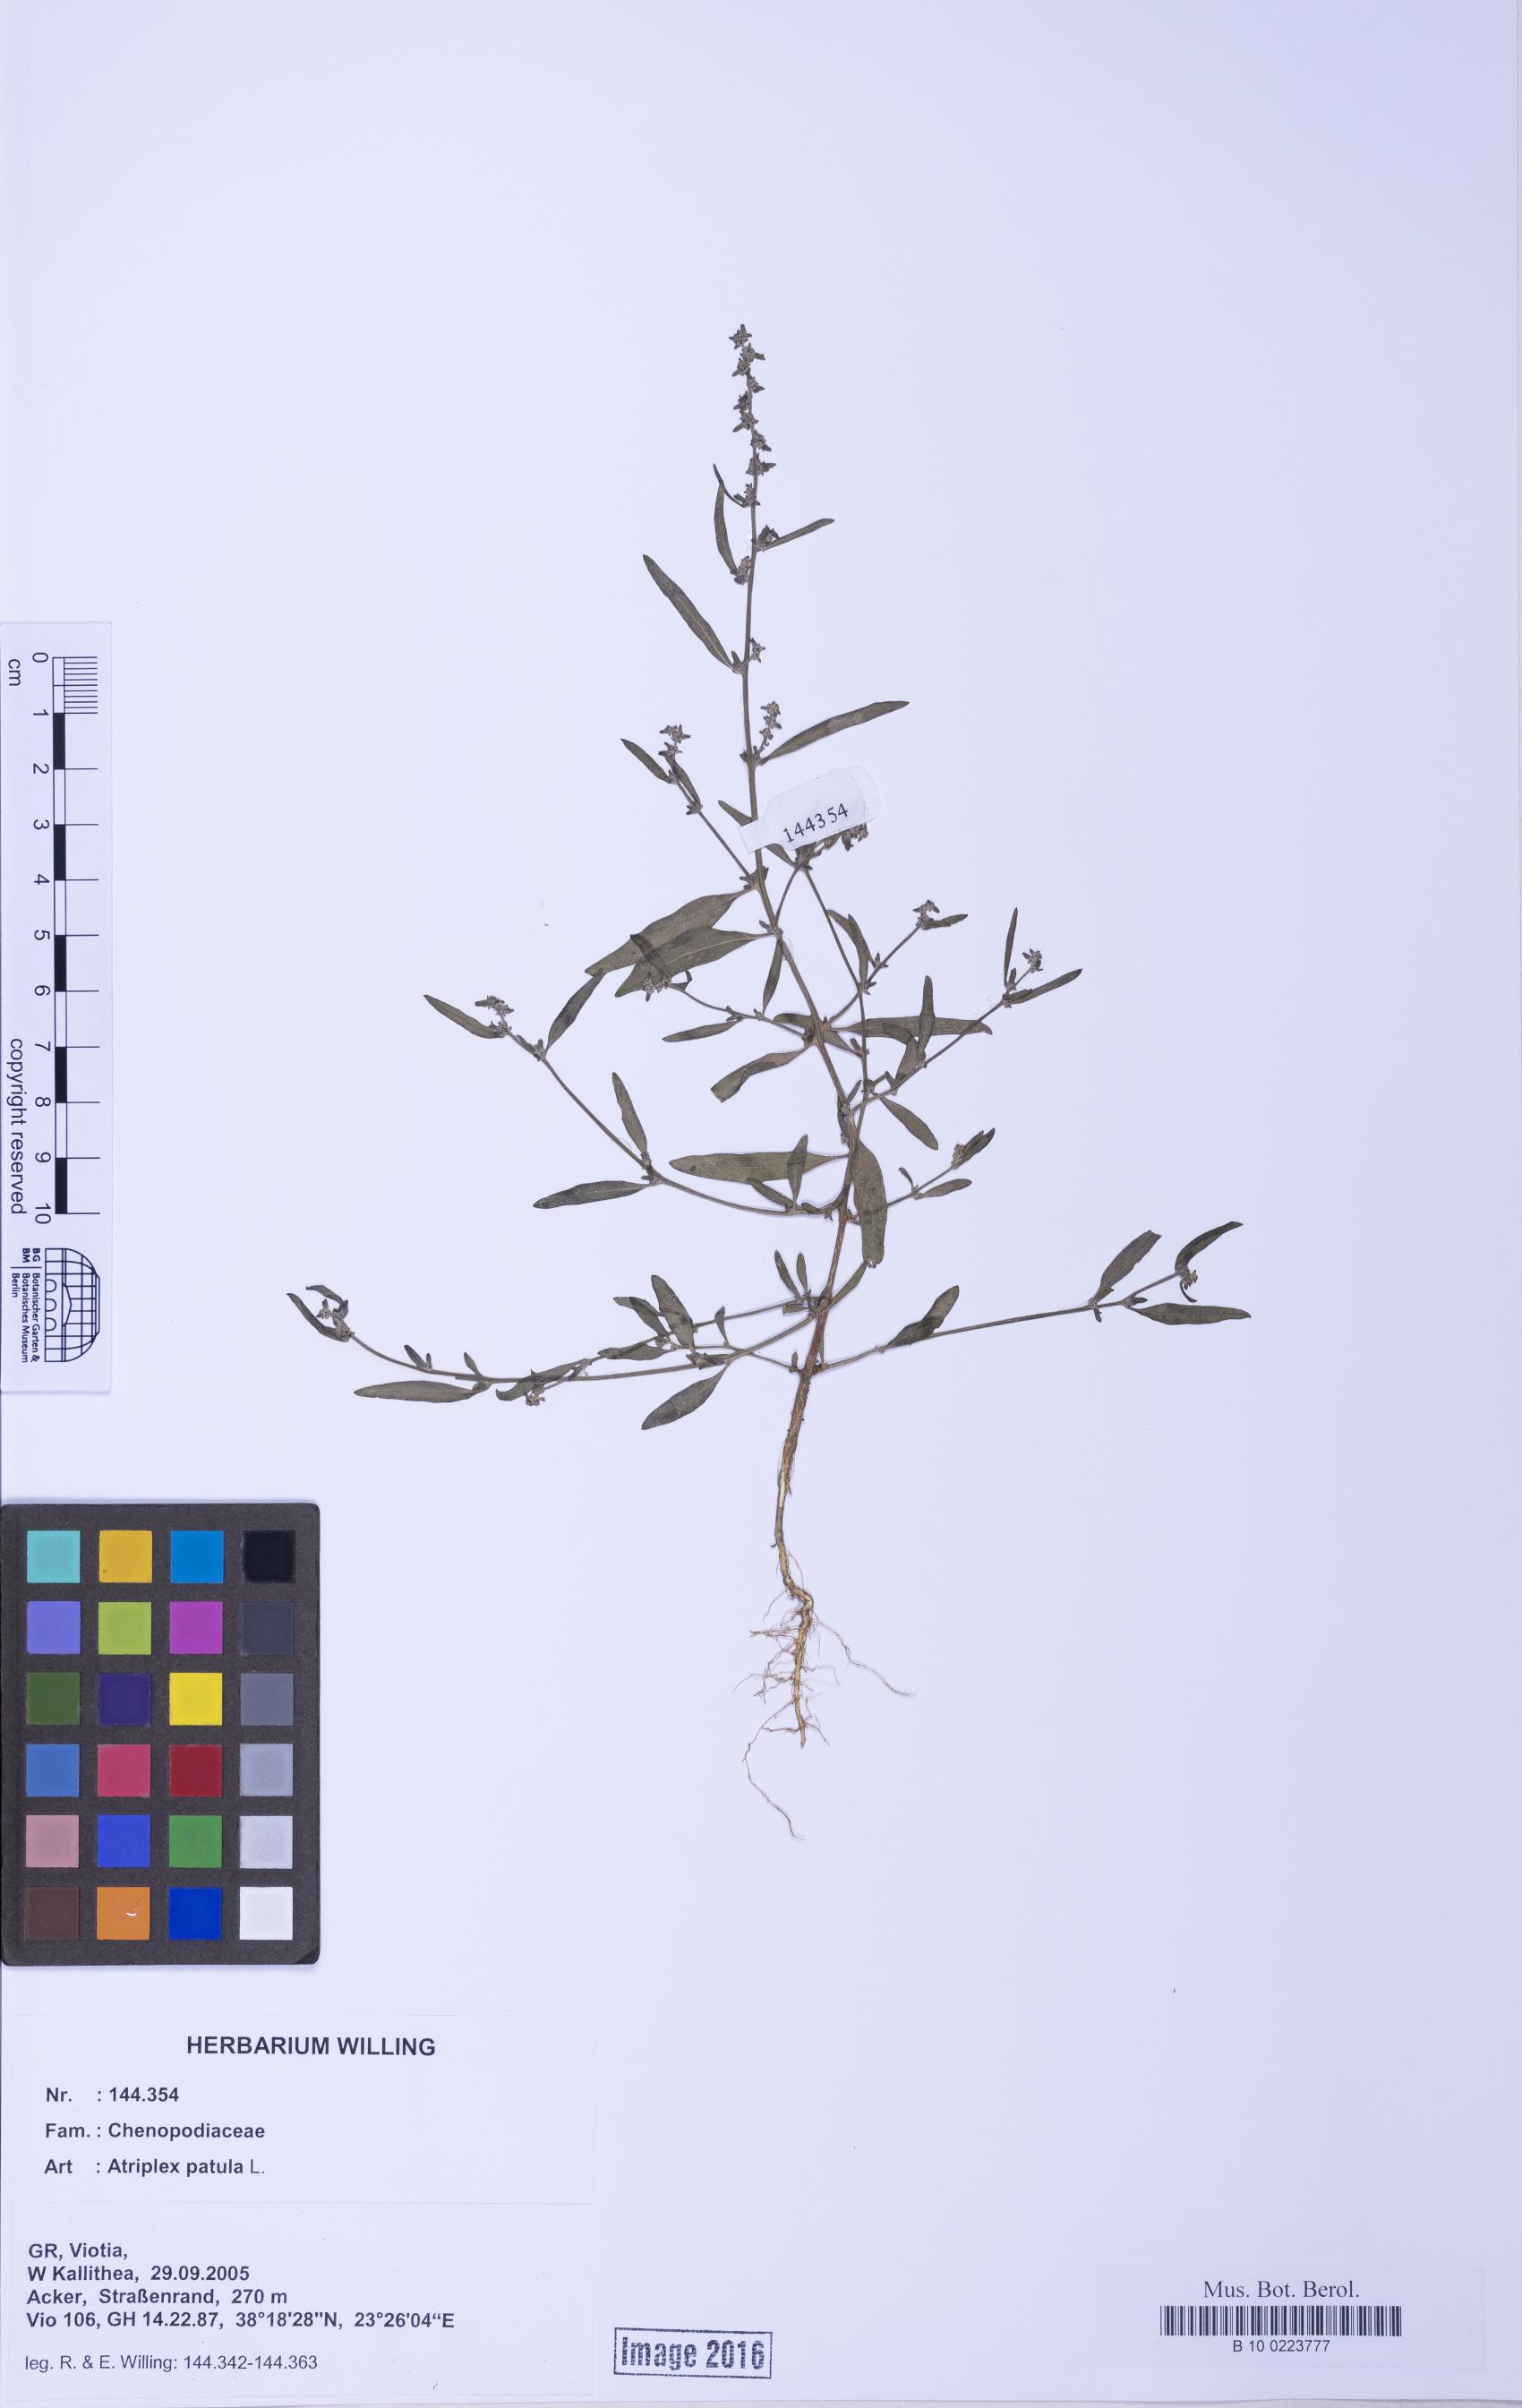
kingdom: Plantae
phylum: Tracheophyta
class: Magnoliopsida
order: Caryophyllales
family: Amaranthaceae
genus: Atriplex
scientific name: Atriplex patula
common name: Common orache
